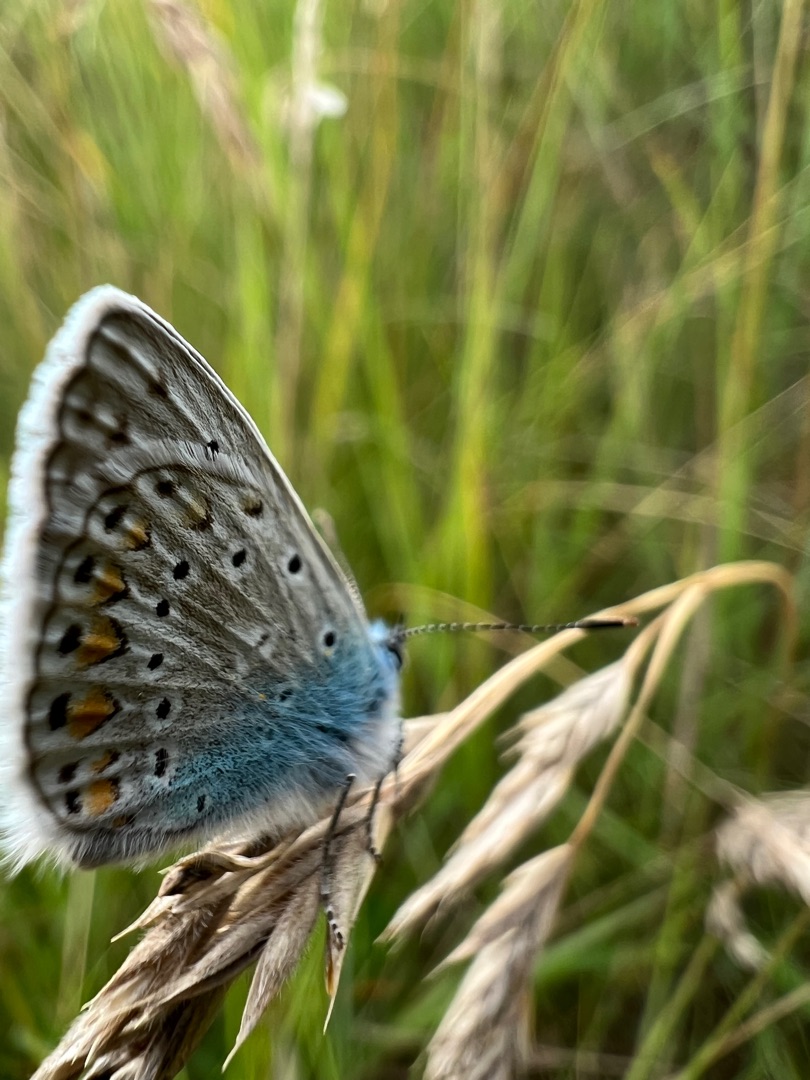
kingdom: Animalia
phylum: Arthropoda
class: Insecta
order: Lepidoptera
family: Lycaenidae
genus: Polyommatus
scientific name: Polyommatus icarus
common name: Almindelig blåfugl
